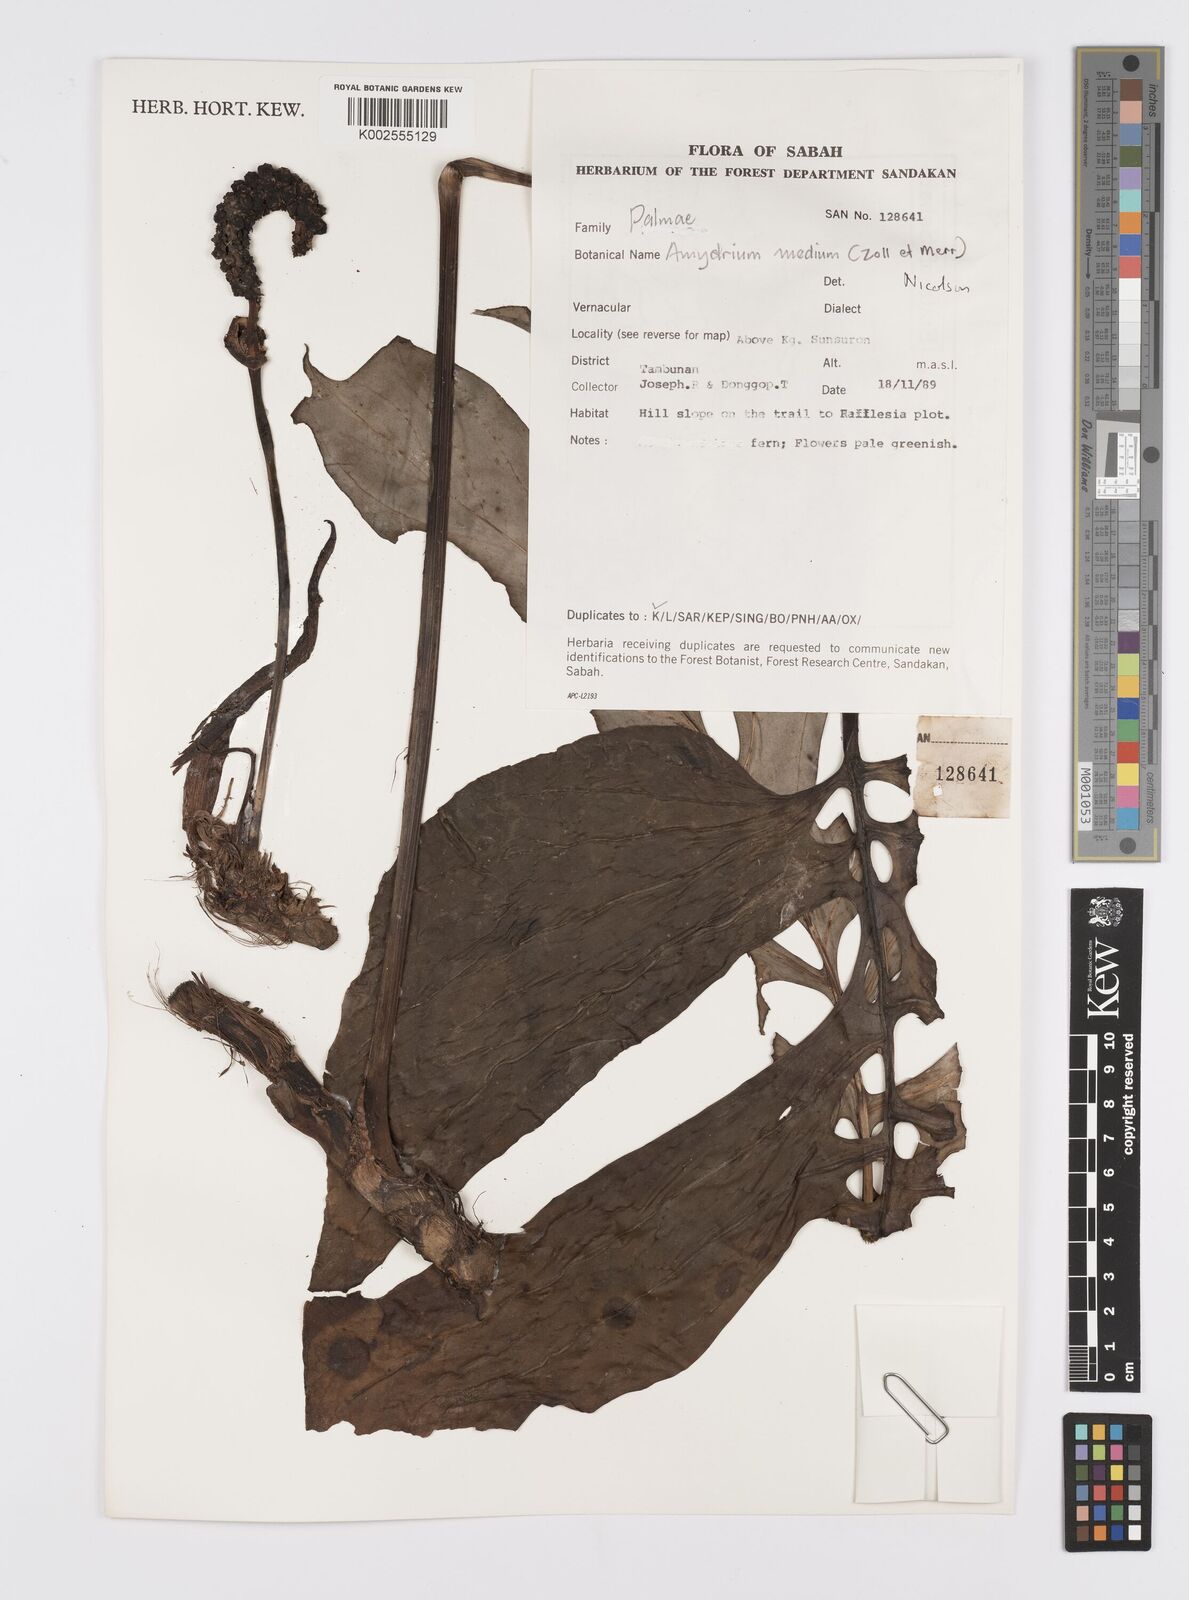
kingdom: Plantae
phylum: Tracheophyta
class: Liliopsida
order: Alismatales
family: Araceae
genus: Amydrium
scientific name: Amydrium medium
